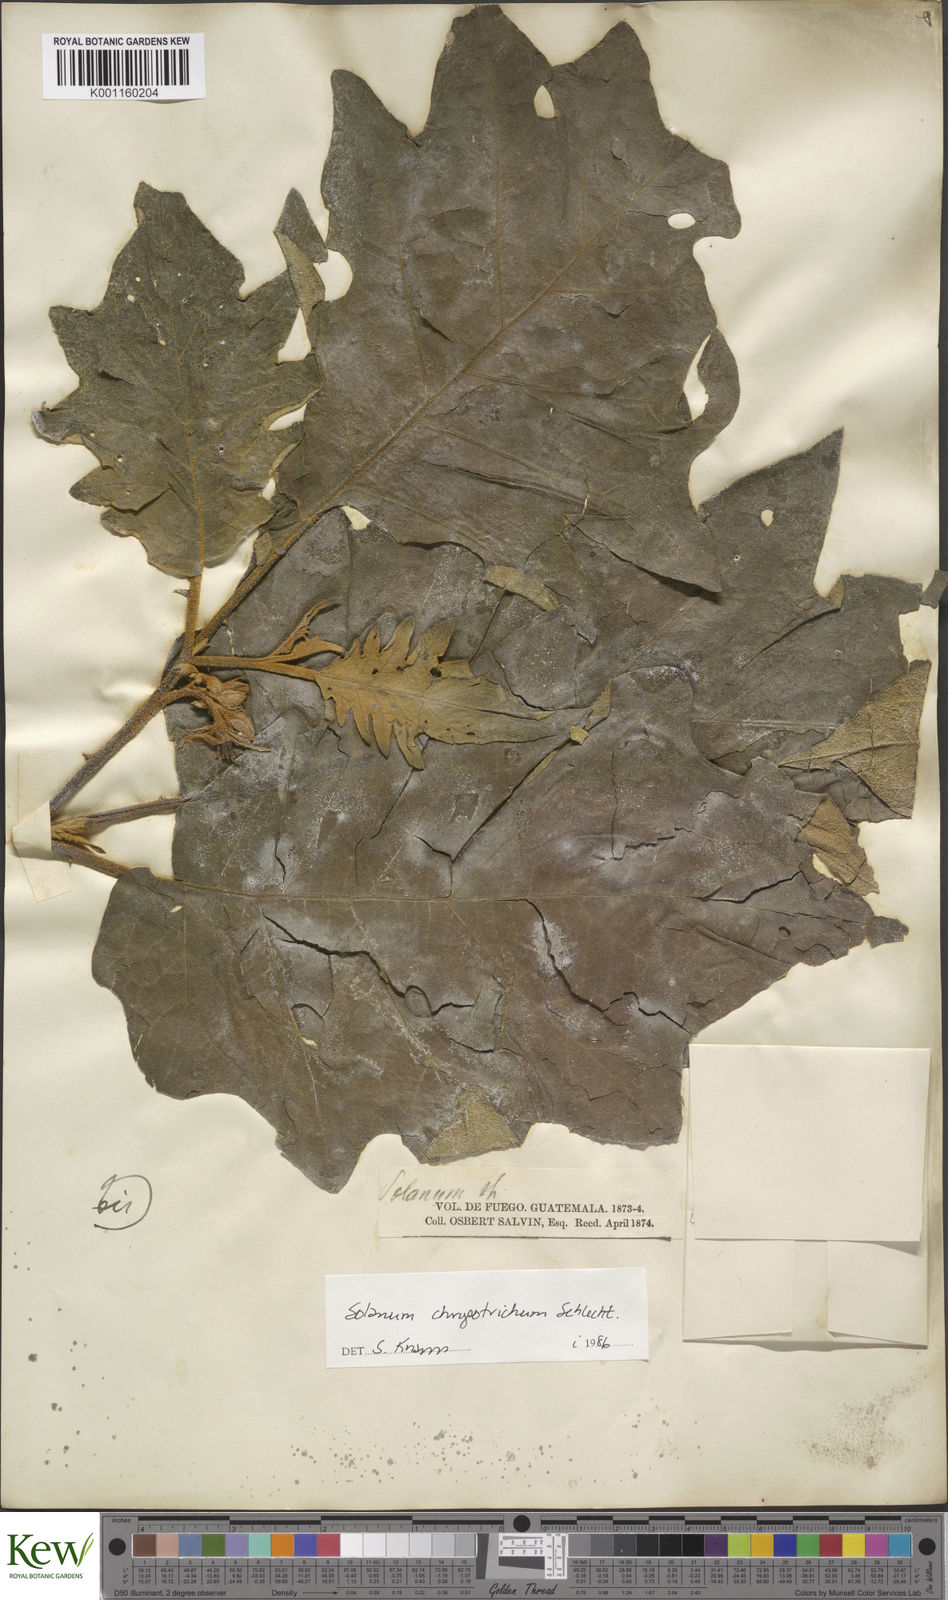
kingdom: Plantae
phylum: Tracheophyta
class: Magnoliopsida
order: Solanales
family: Solanaceae
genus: Solanum
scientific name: Solanum chrysotrichum
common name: Nightshade
